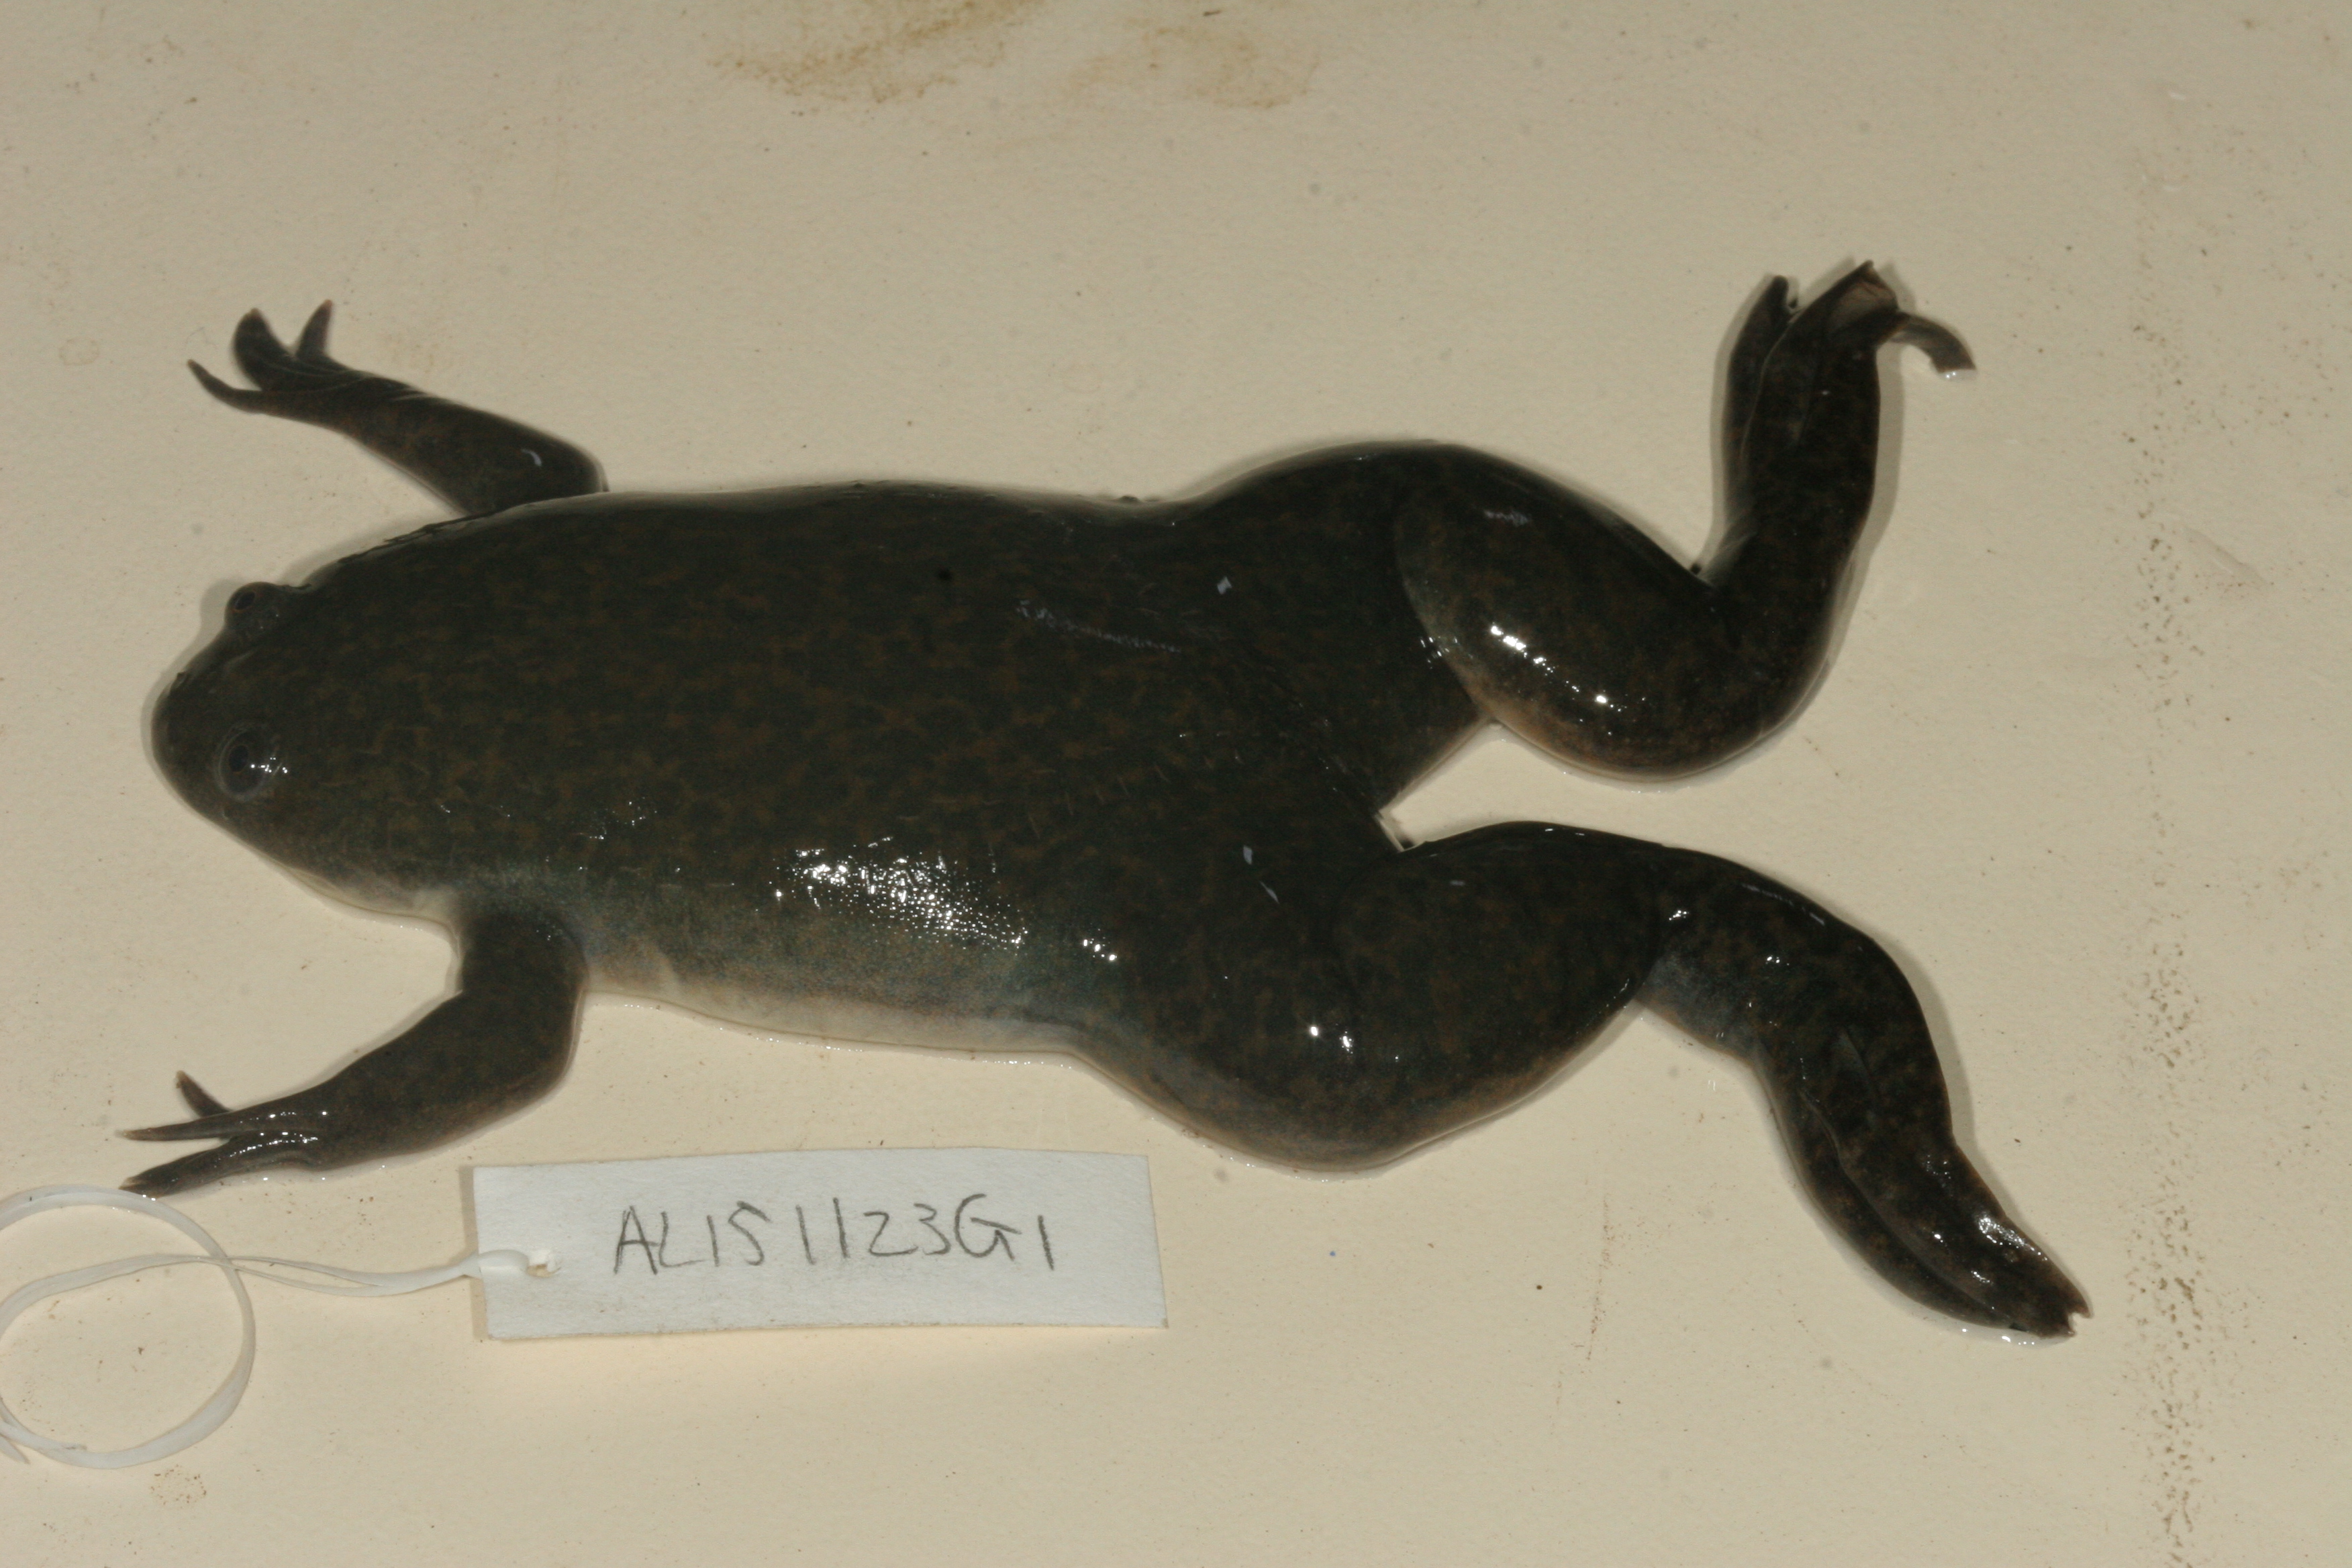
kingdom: Animalia
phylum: Chordata
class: Amphibia
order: Anura
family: Pipidae
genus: Xenopus
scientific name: Xenopus laevis
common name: African clawed frog
